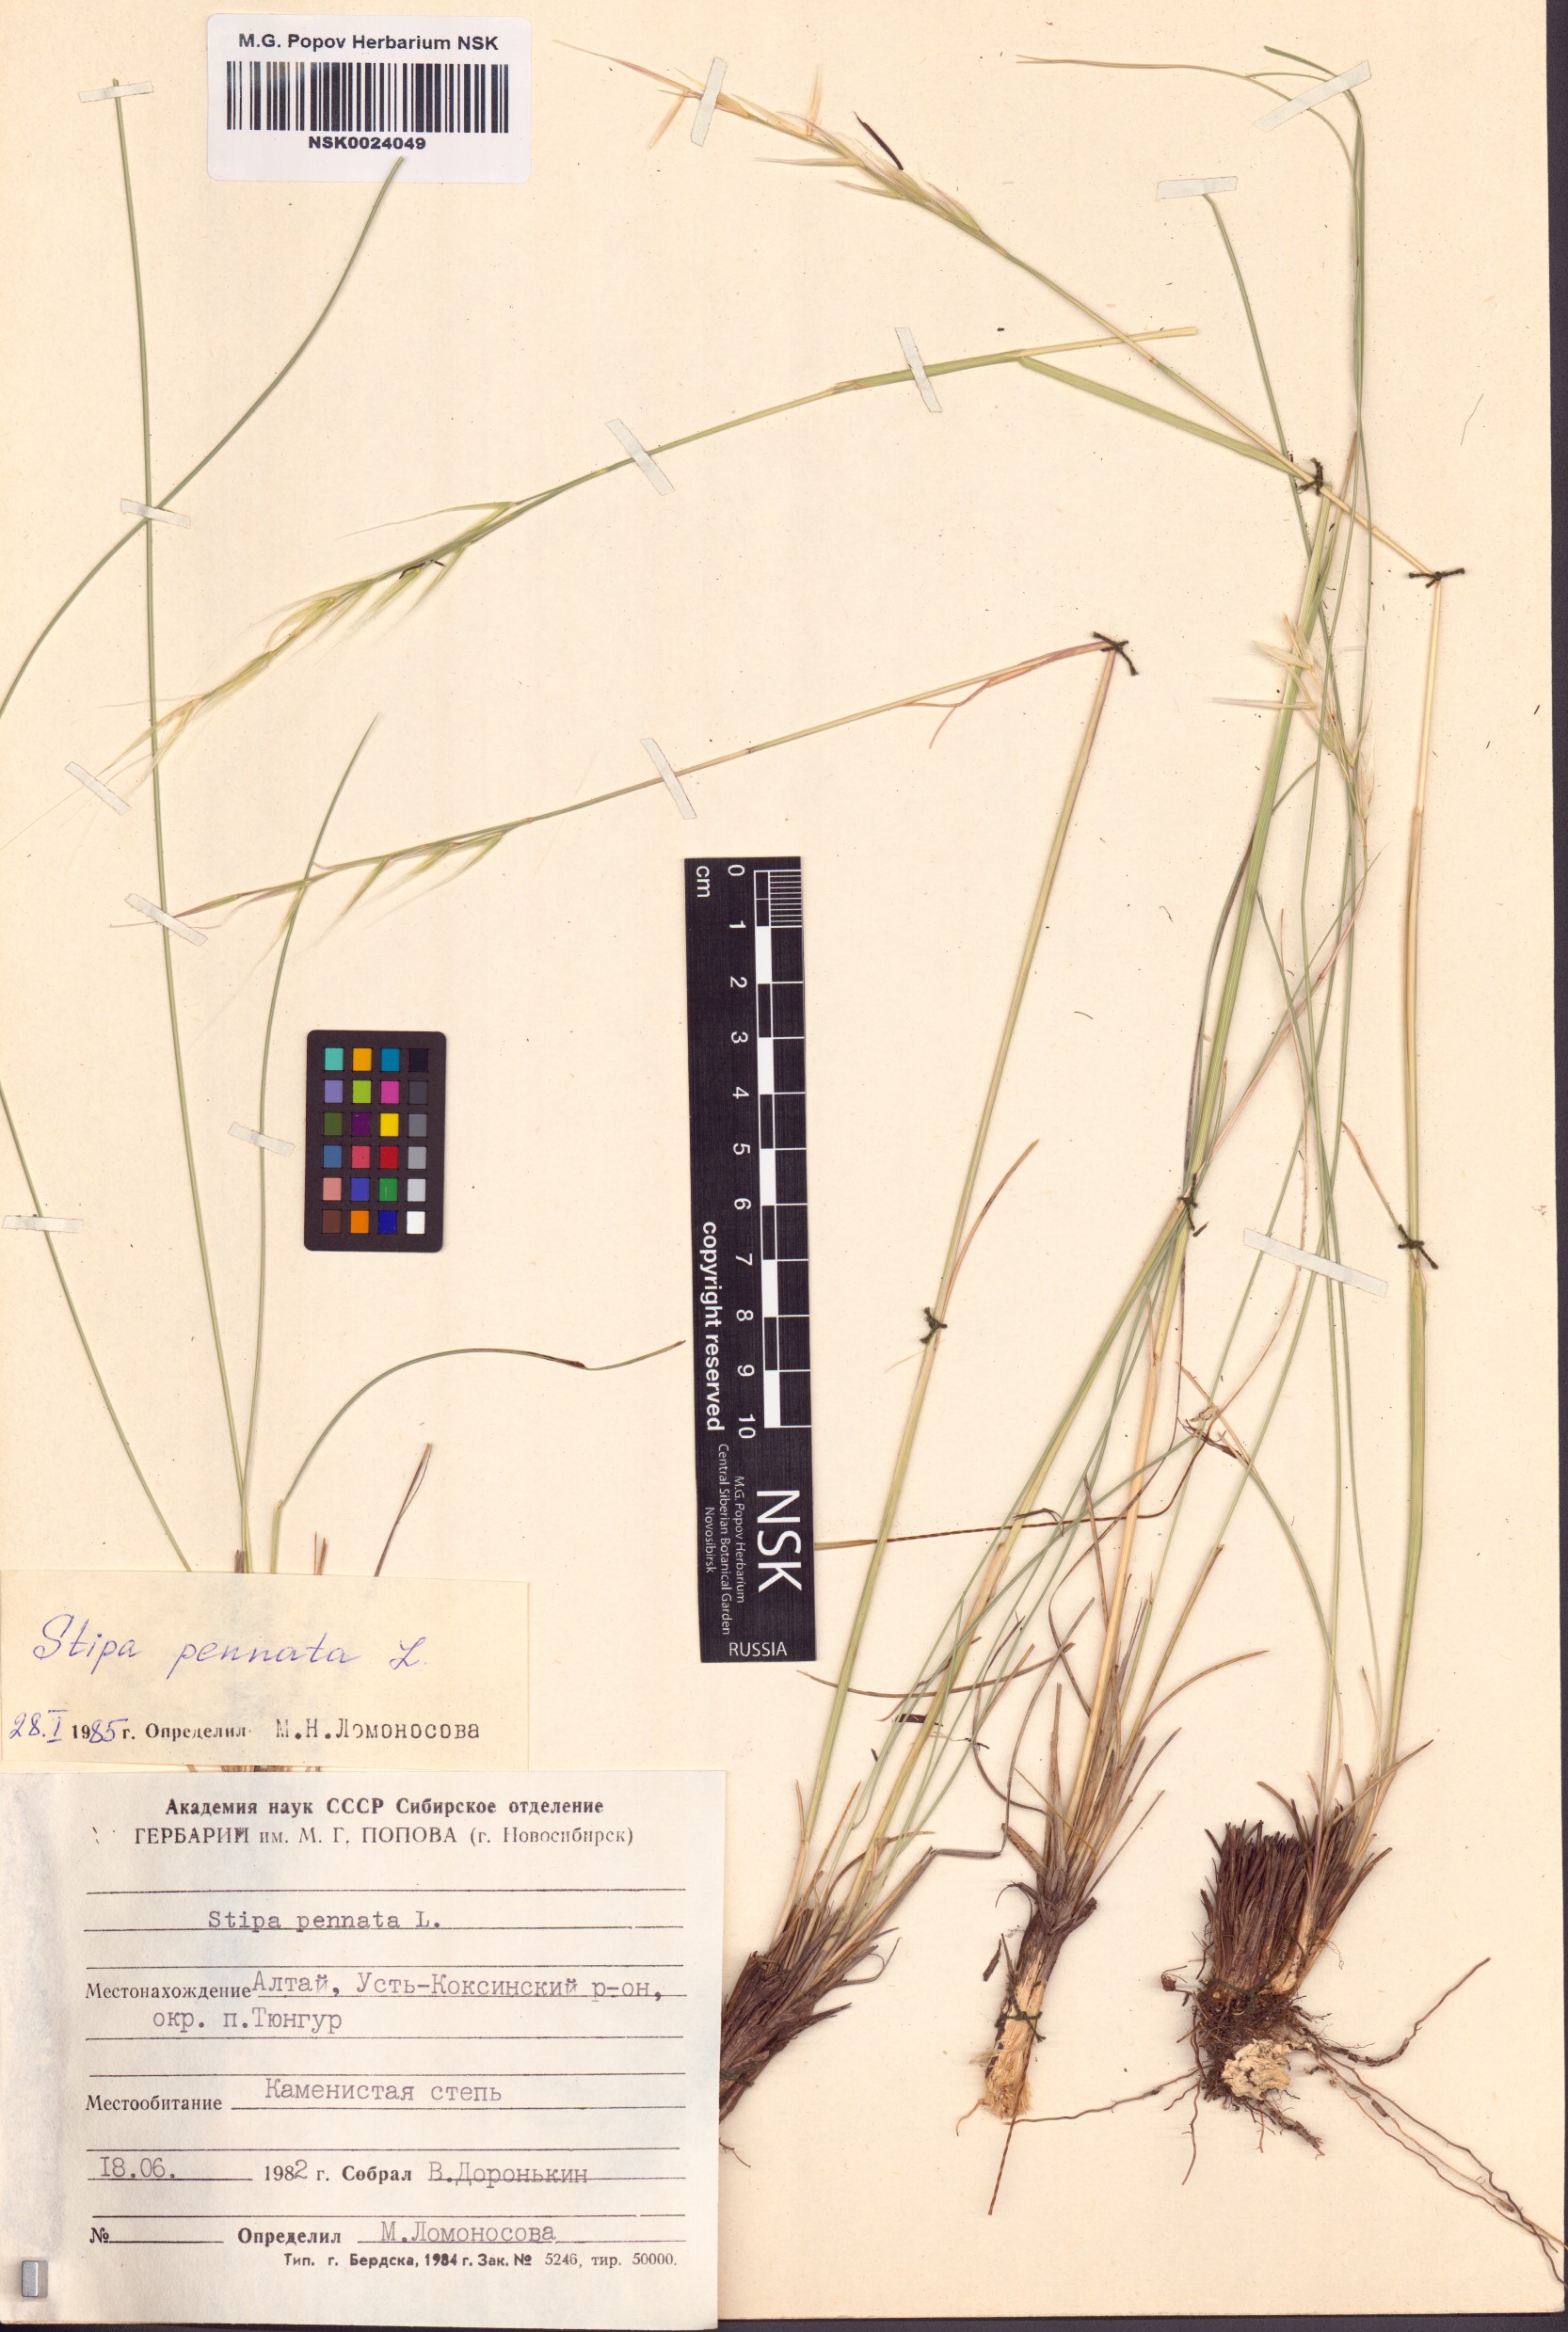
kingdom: Plantae
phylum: Tracheophyta
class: Liliopsida
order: Poales
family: Poaceae
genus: Stipa
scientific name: Stipa pennata
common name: European feather grass
